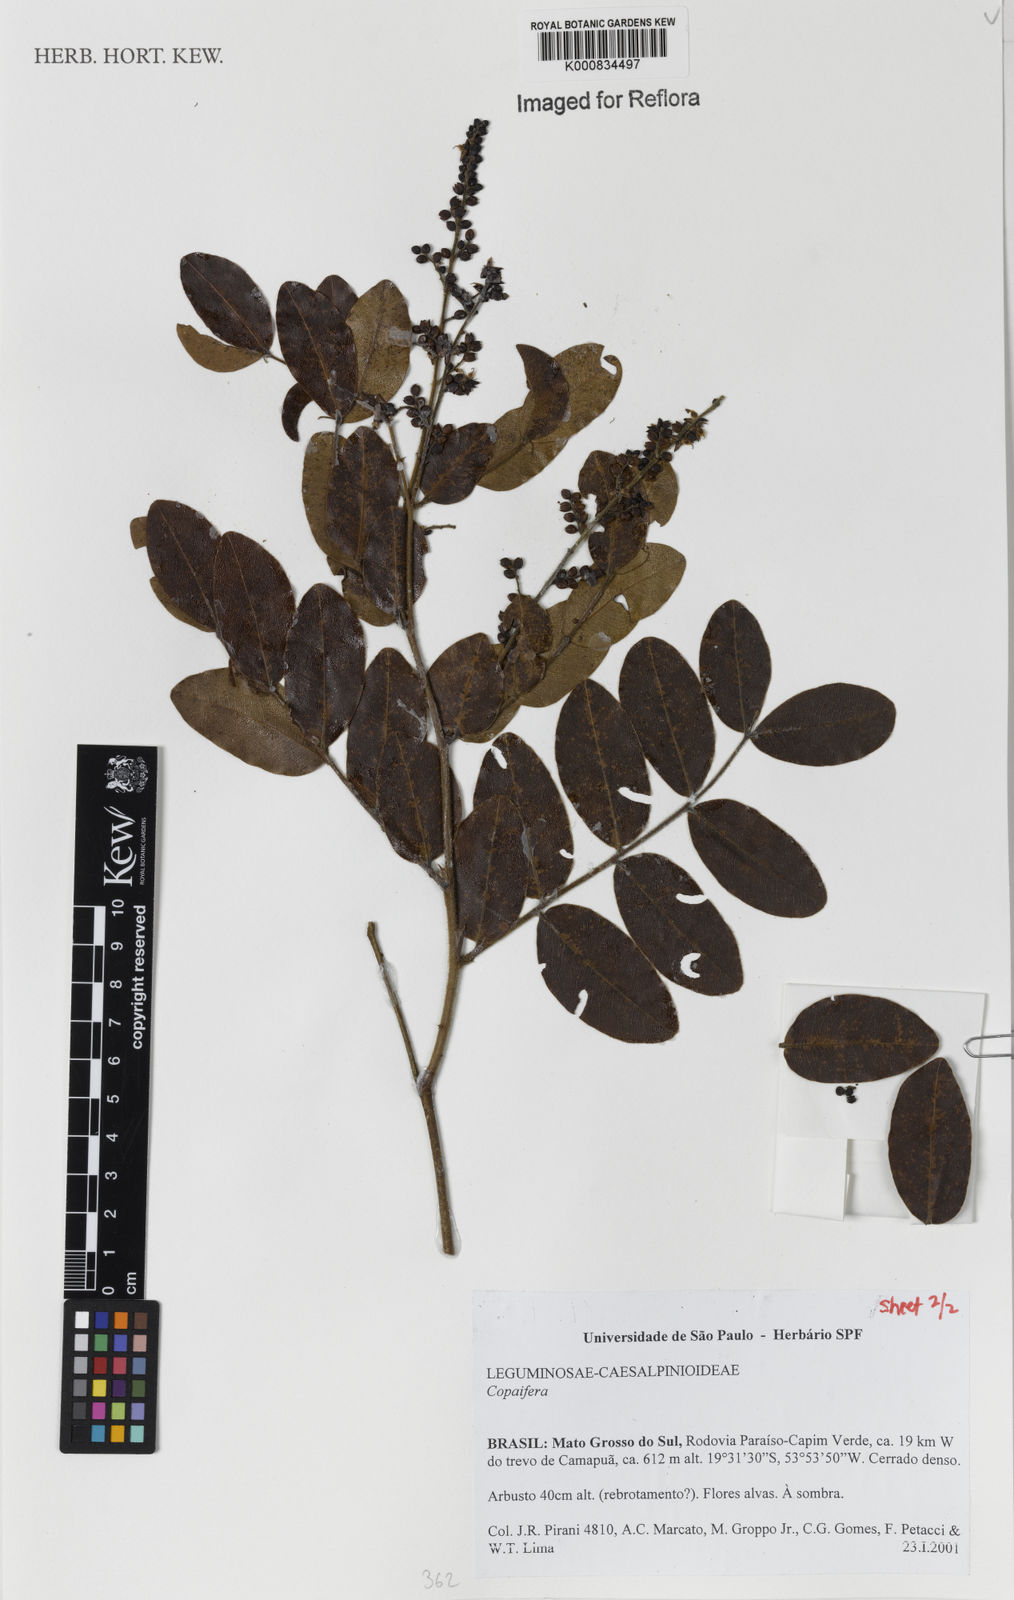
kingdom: Plantae
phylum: Tracheophyta
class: Magnoliopsida
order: Fabales
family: Fabaceae
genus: Copaifera
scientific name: Copaifera
